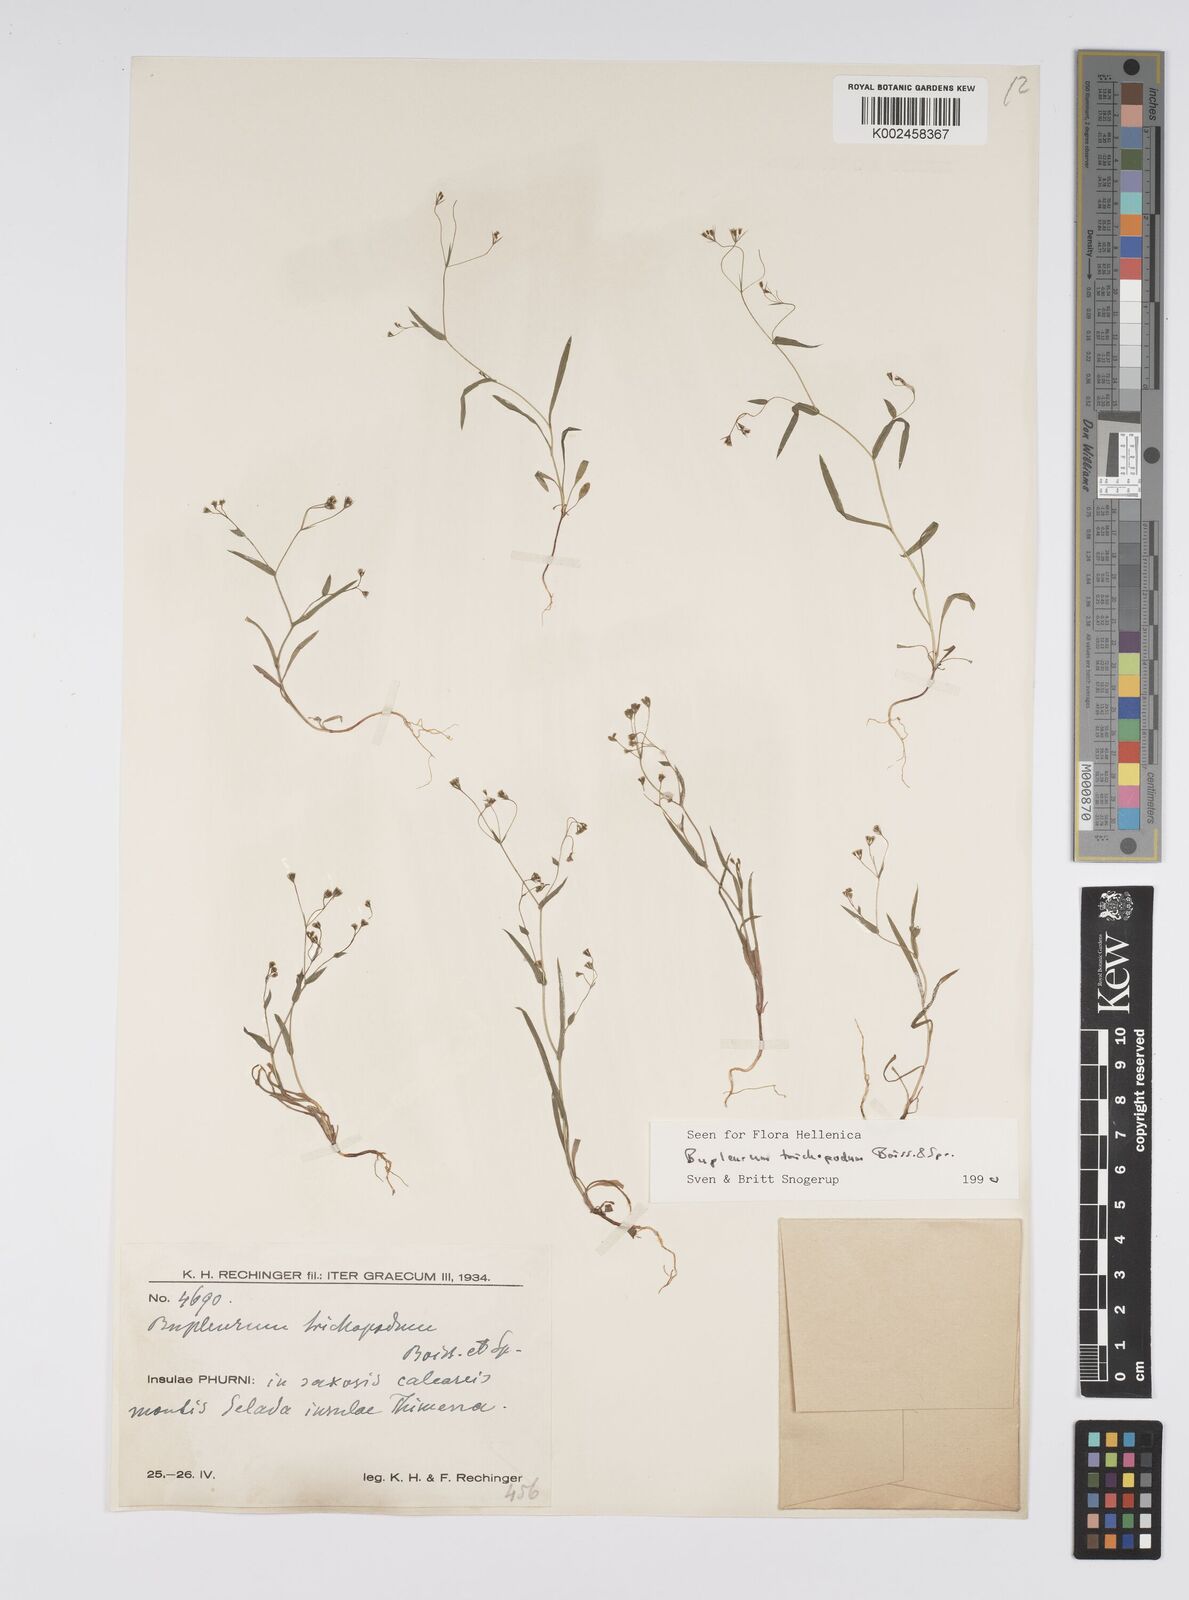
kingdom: Plantae
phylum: Tracheophyta
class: Magnoliopsida
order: Apiales
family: Apiaceae
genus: Bupleurum
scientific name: Bupleurum trichopodum
